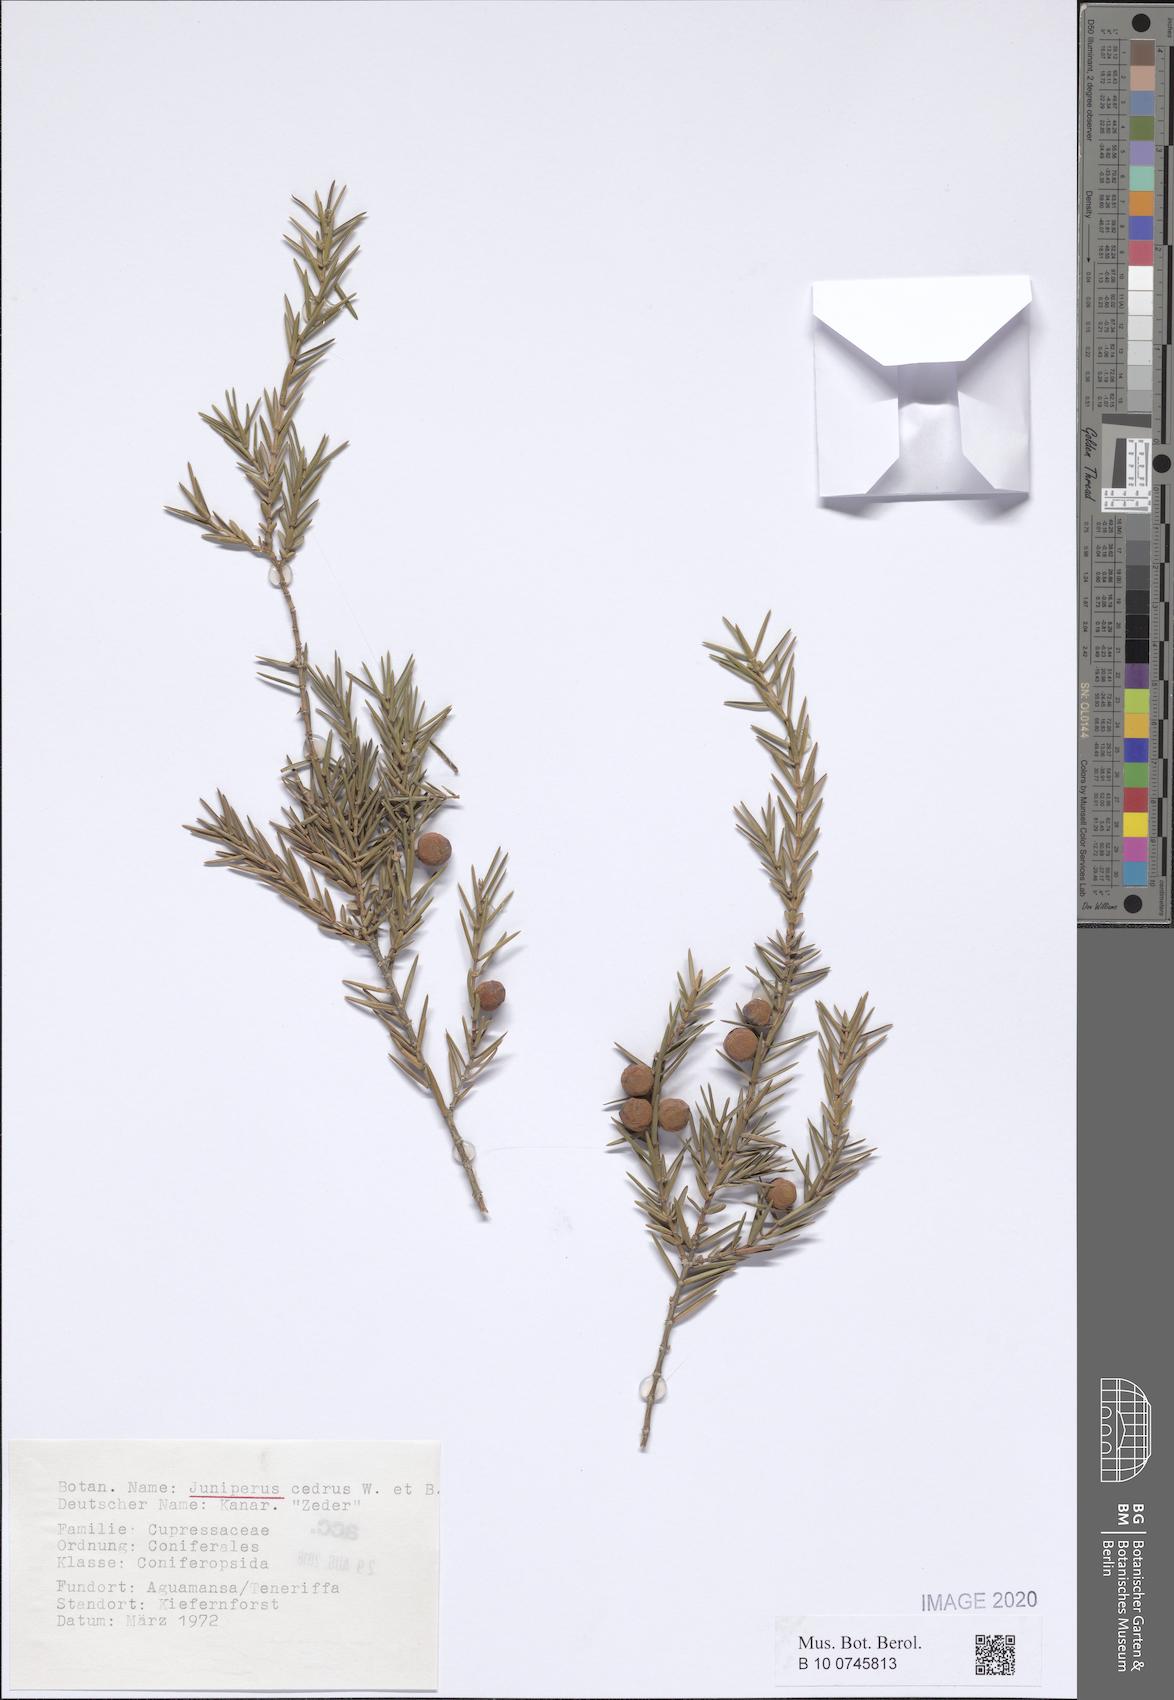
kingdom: Plantae
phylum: Tracheophyta
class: Pinopsida
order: Pinales
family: Cupressaceae
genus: Juniperus
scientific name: Juniperus cedrus
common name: Canary islands juniper
